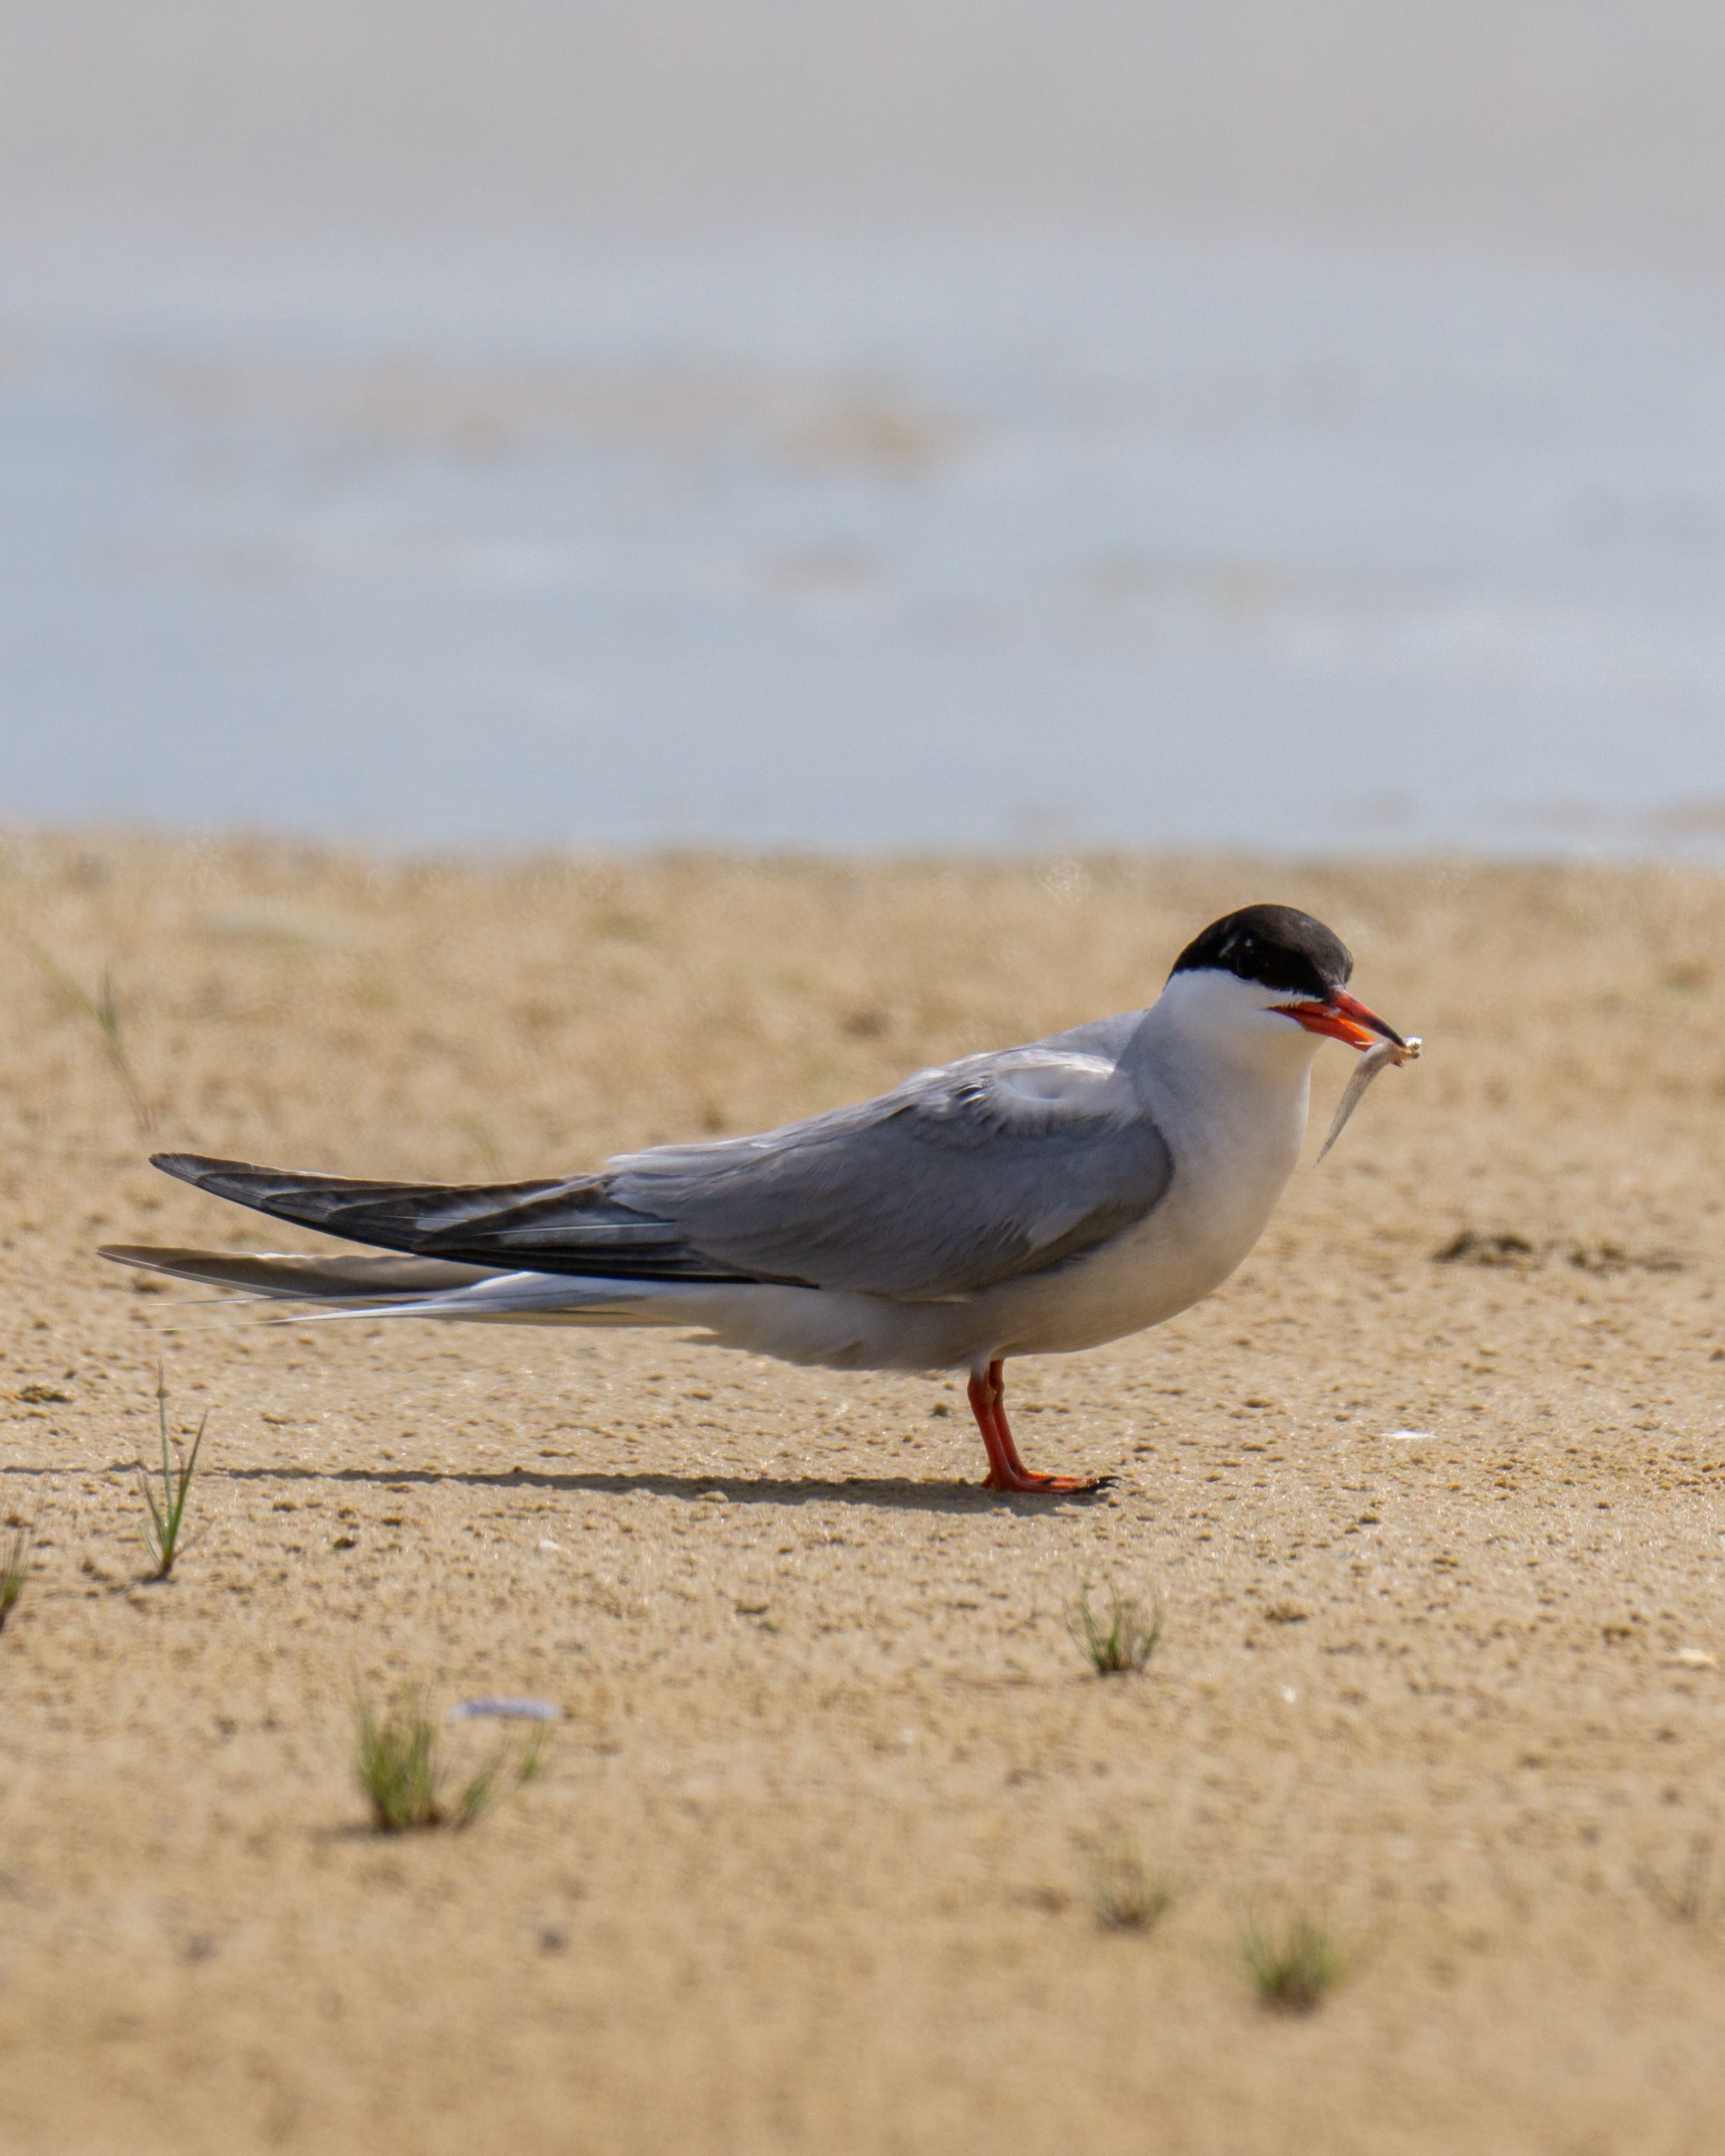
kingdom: Animalia
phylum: Chordata
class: Aves
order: Charadriiformes
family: Laridae
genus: Sterna
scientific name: Sterna hirundo
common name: Fjordterne
